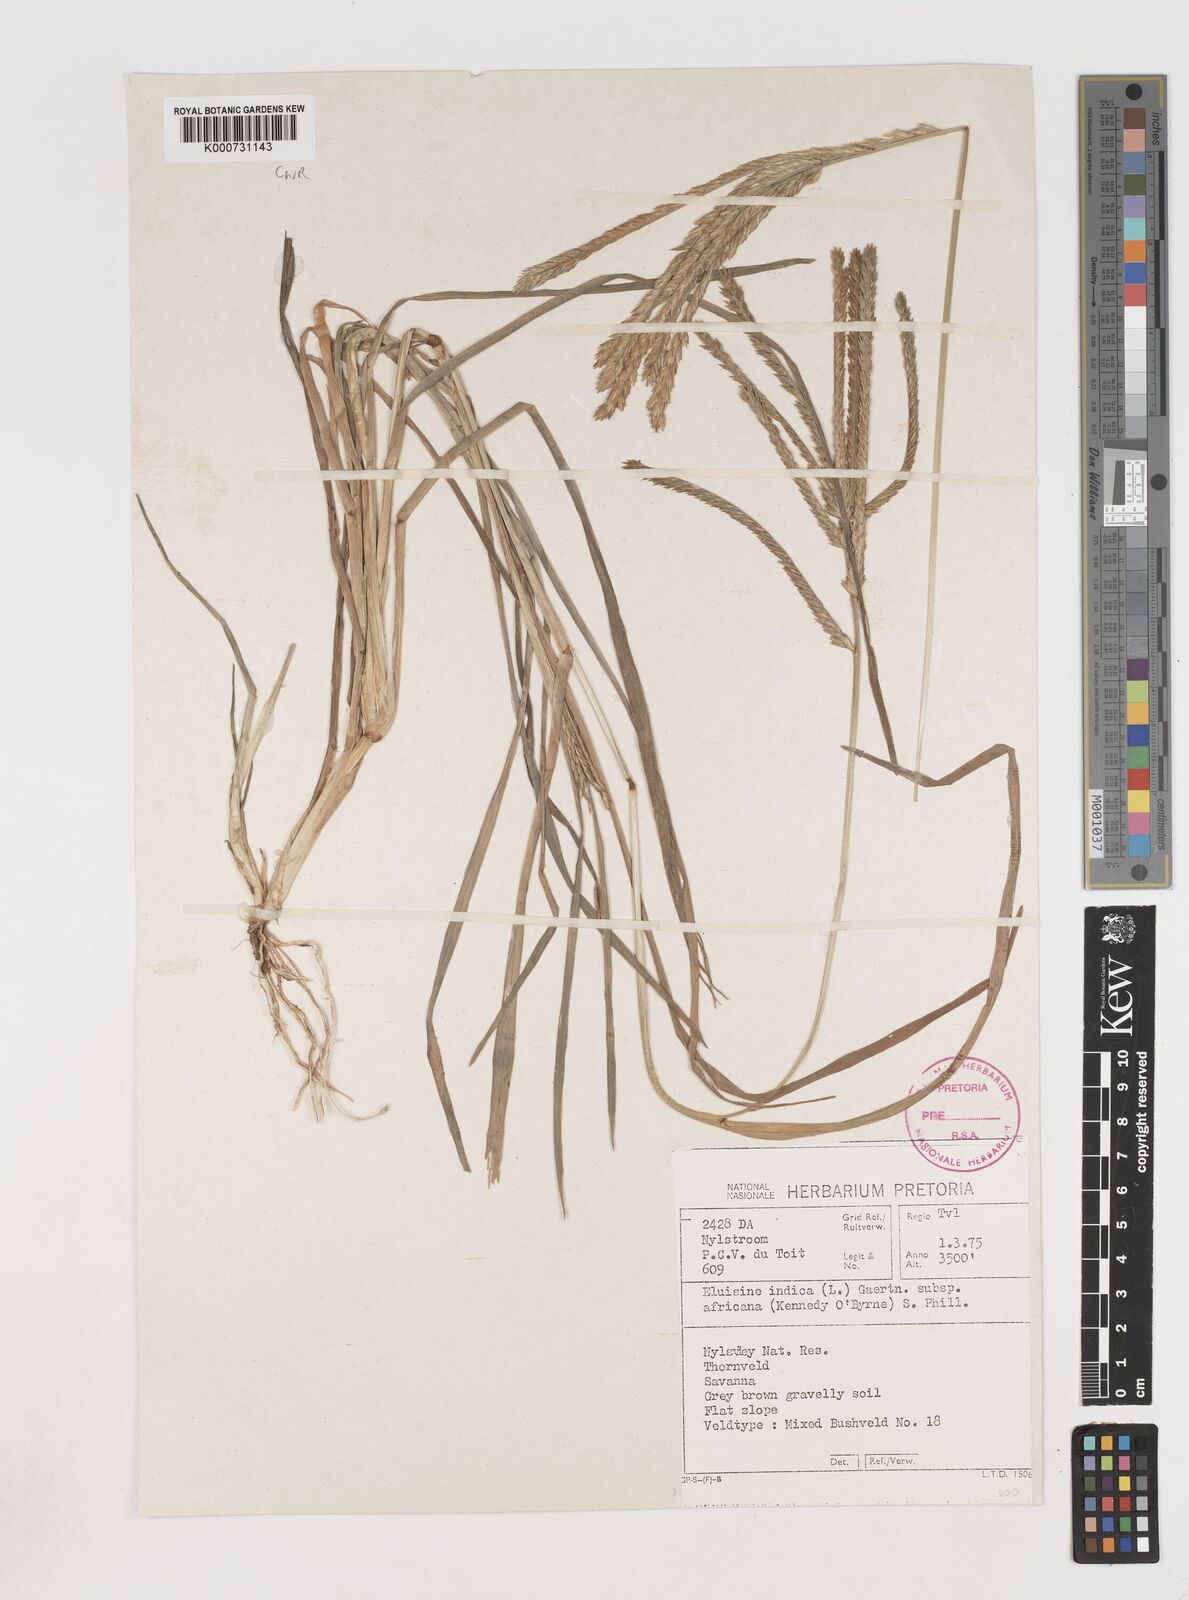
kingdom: Plantae
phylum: Tracheophyta
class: Liliopsida
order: Poales
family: Poaceae
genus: Eleusine
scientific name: Eleusine africana
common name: Wild african finger millet
